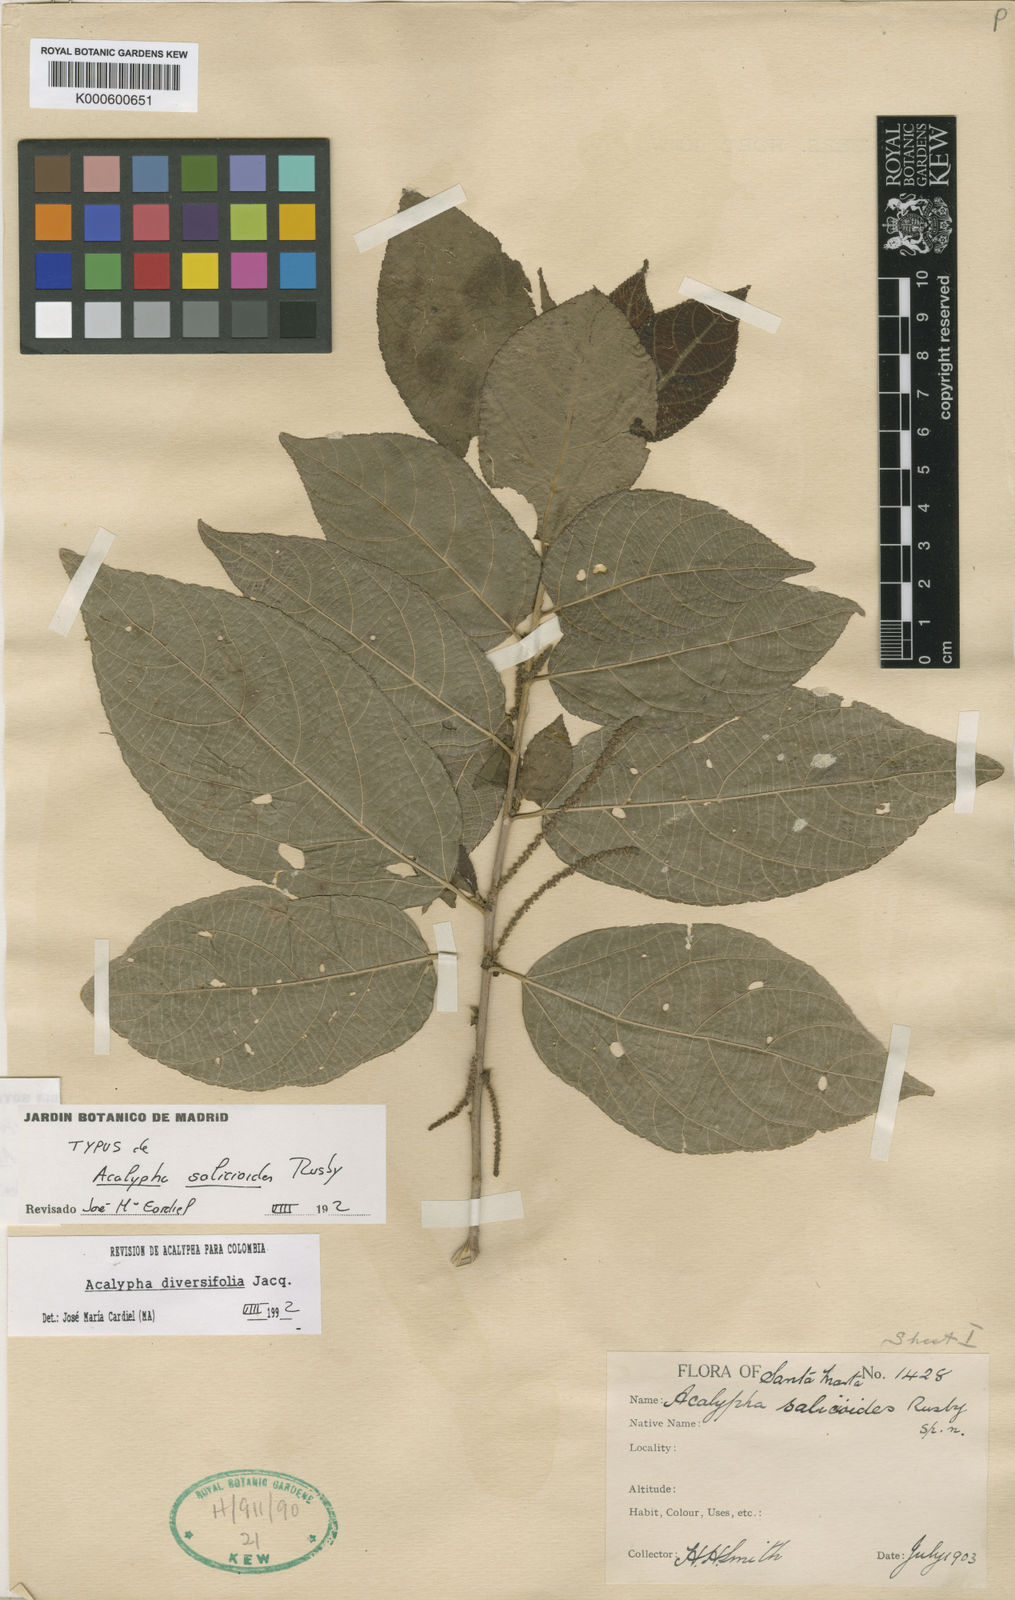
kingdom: Plantae
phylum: Tracheophyta
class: Magnoliopsida
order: Malpighiales
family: Euphorbiaceae
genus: Acalypha
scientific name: Acalypha diversifolia
